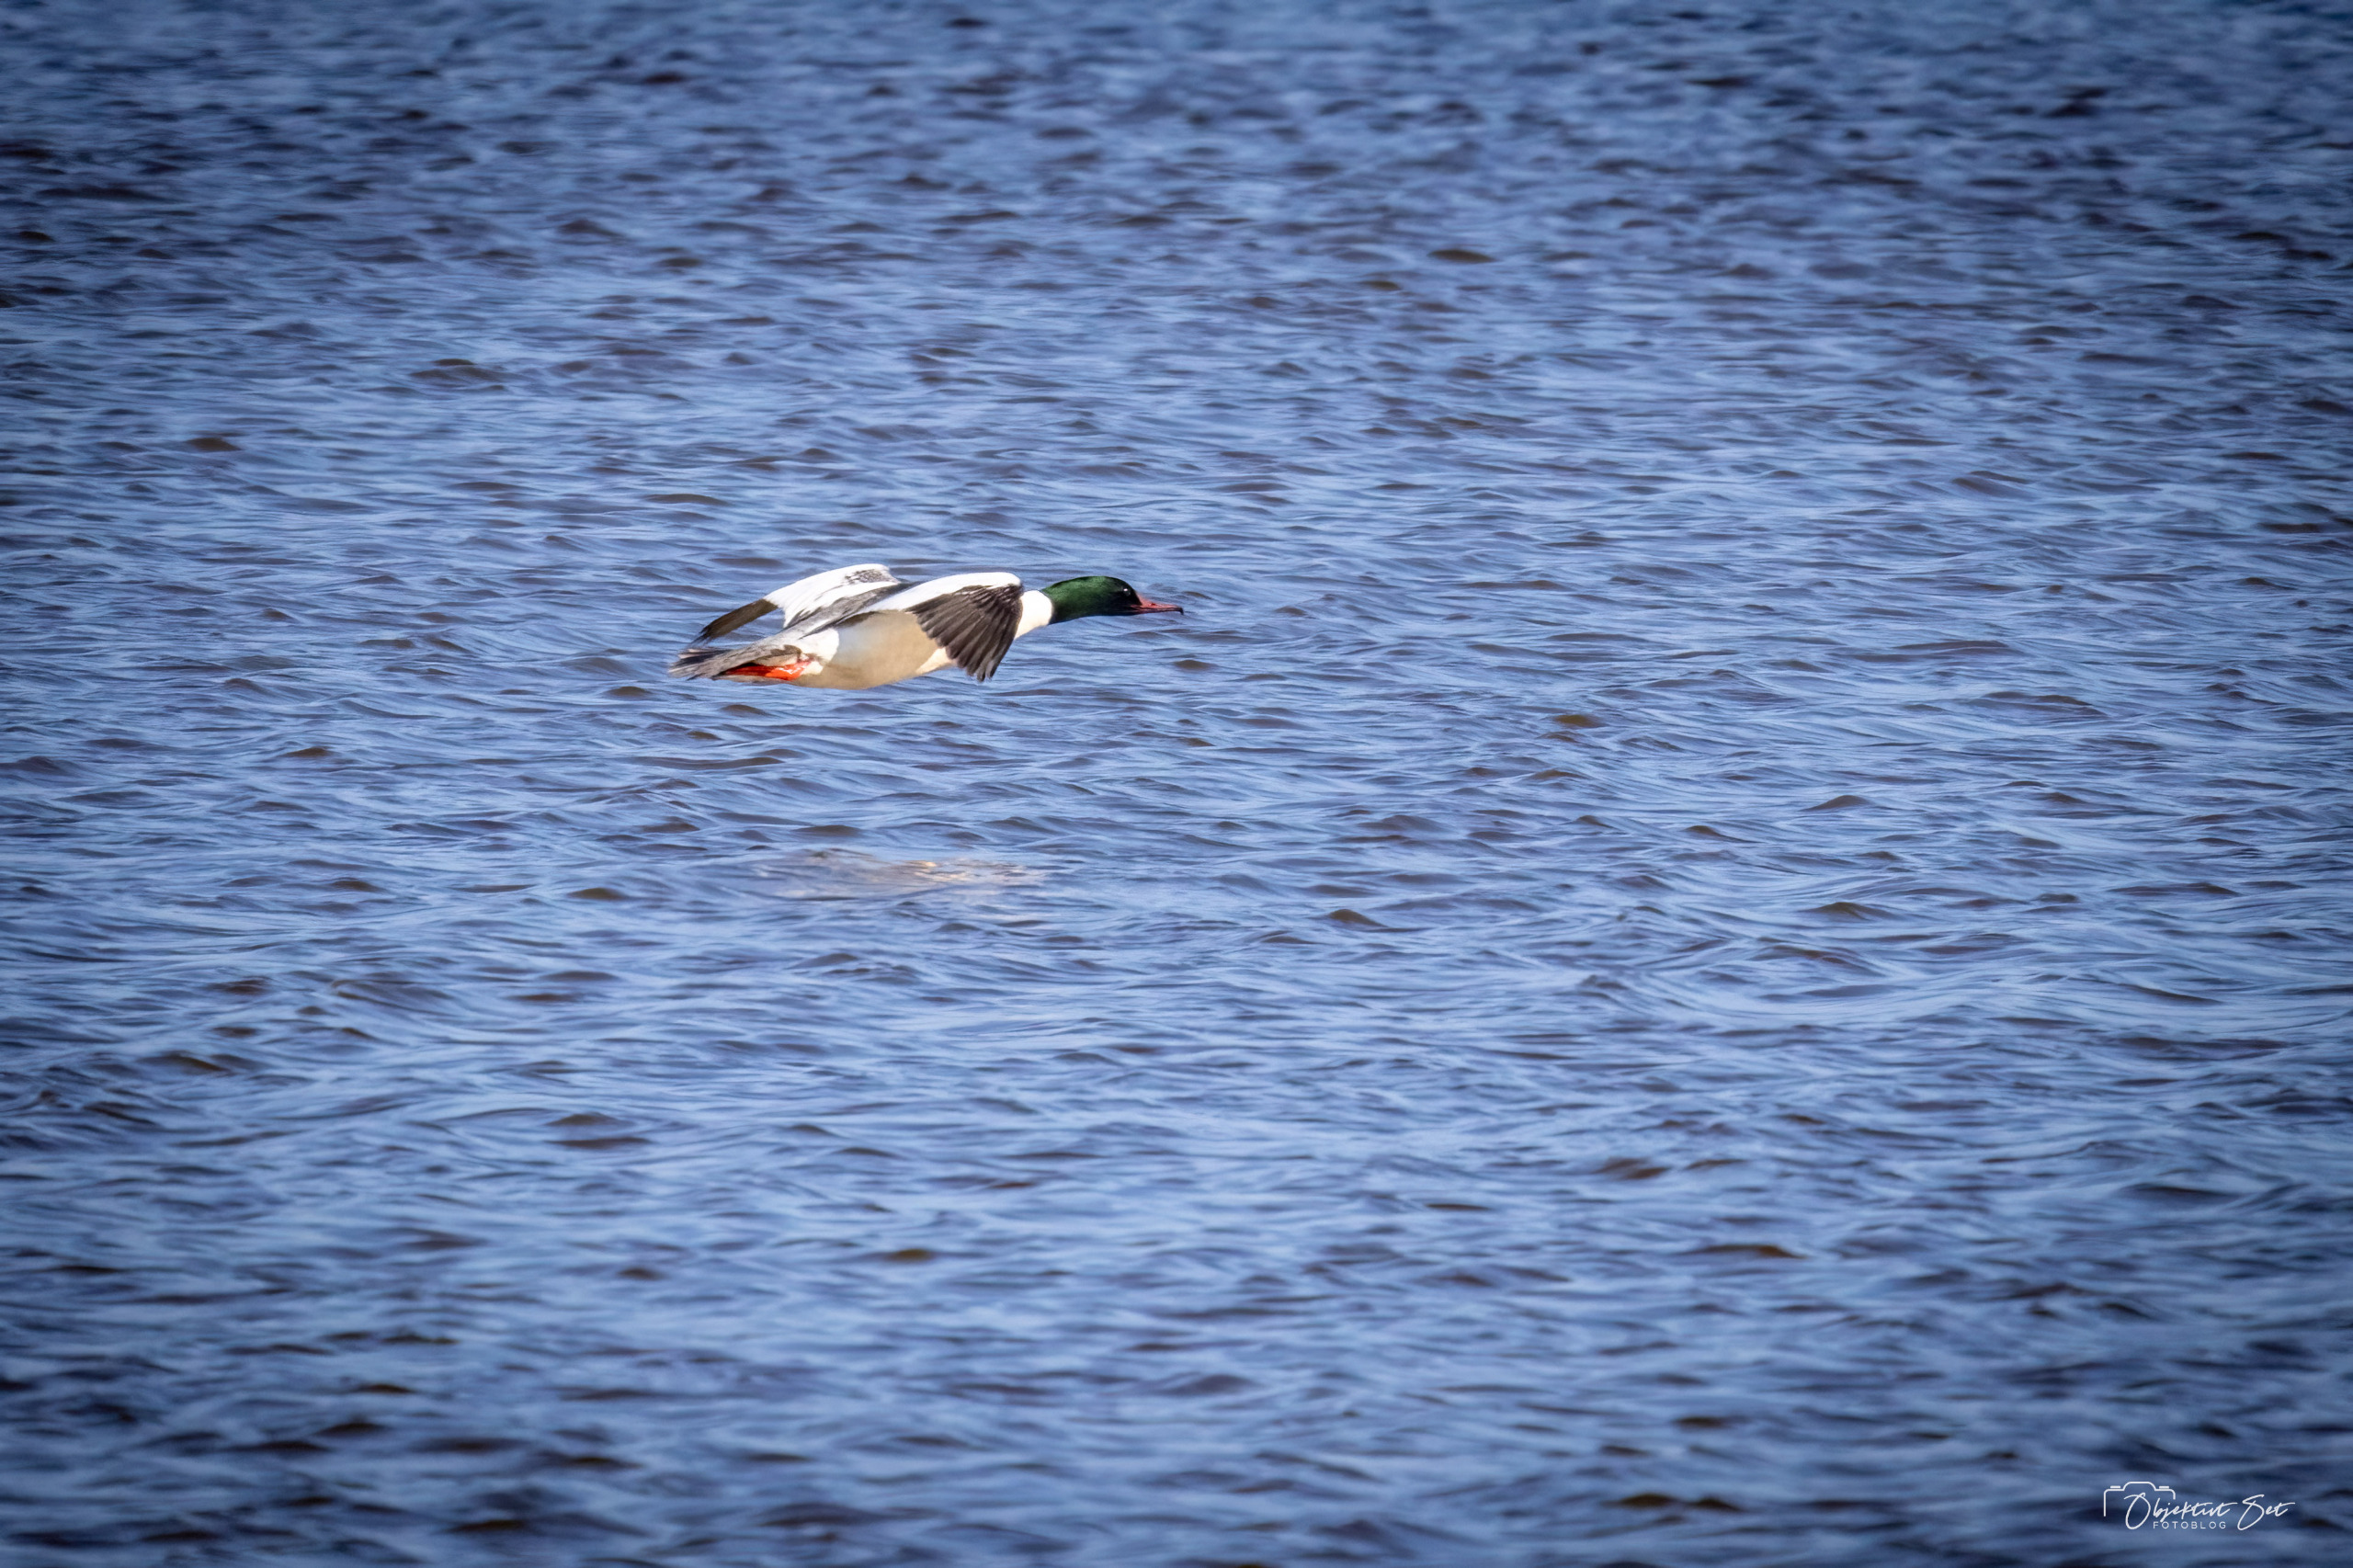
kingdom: Animalia
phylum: Chordata
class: Aves
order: Anseriformes
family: Anatidae
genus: Mergus
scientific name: Mergus merganser
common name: Stor skallesluger
